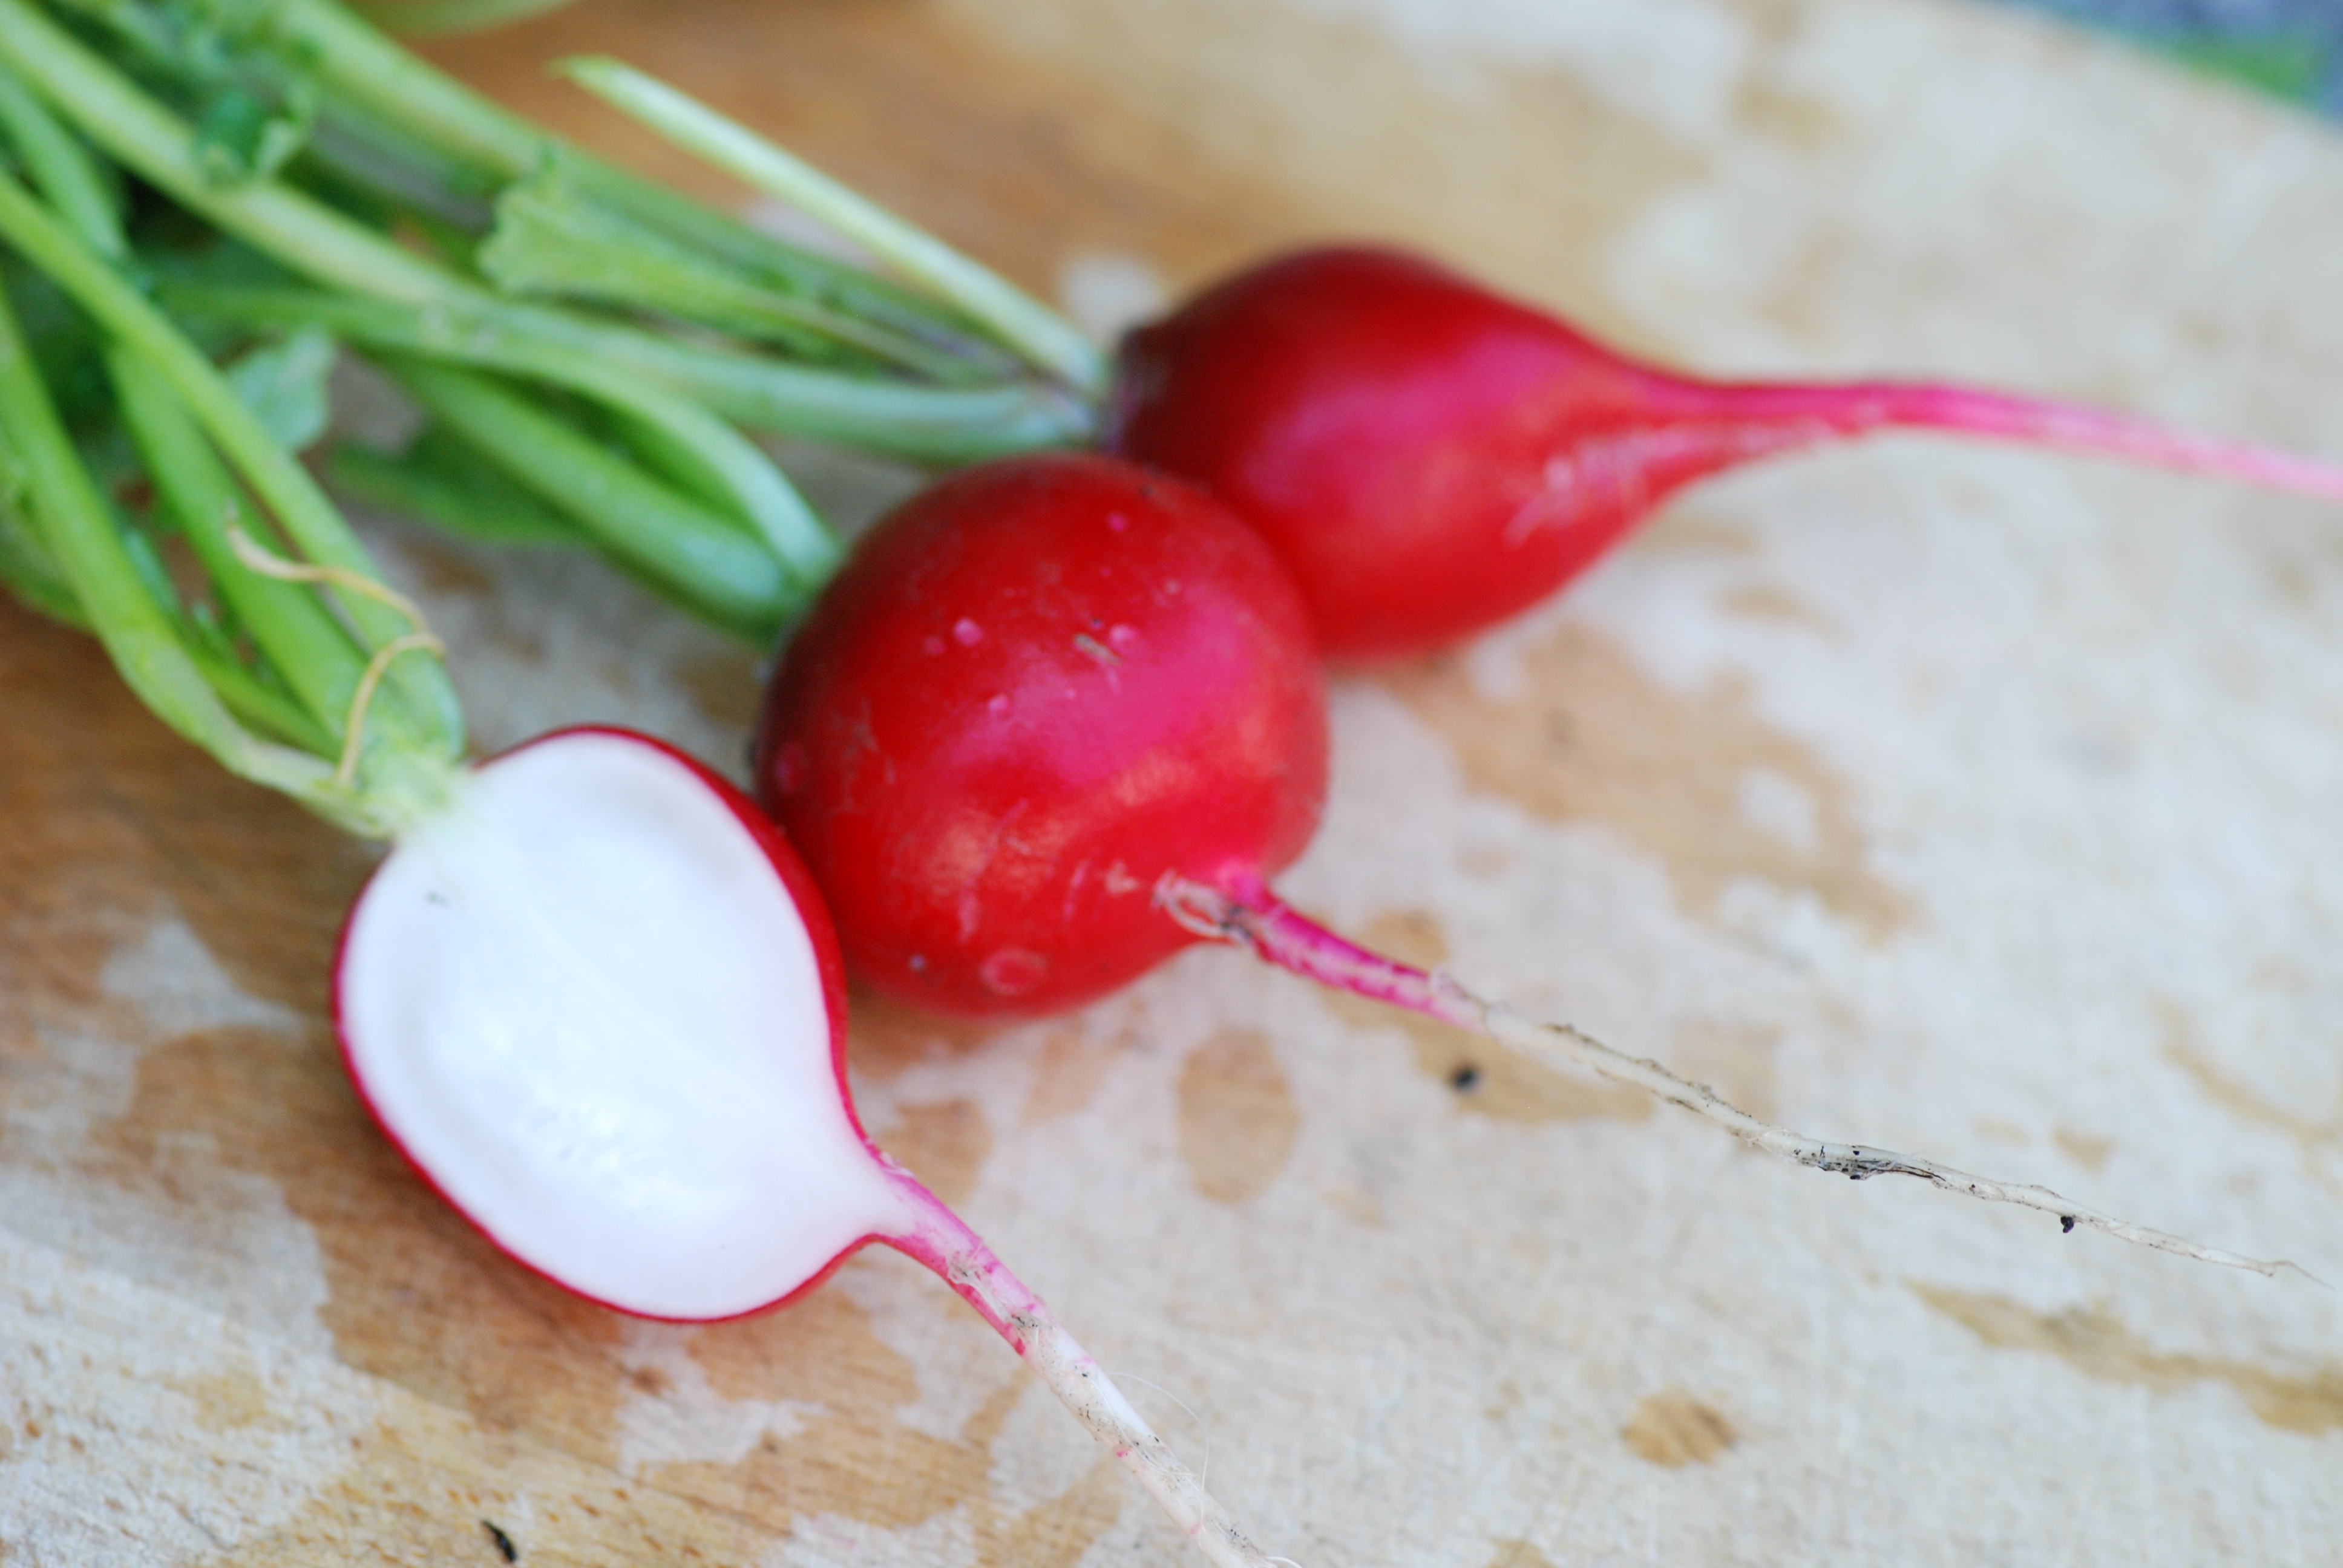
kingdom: Plantae
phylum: Tracheophyta
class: Magnoliopsida
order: Brassicales
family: Brassicaceae
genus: Raphanus
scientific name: Raphanus sativus
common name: Cultivated radish
